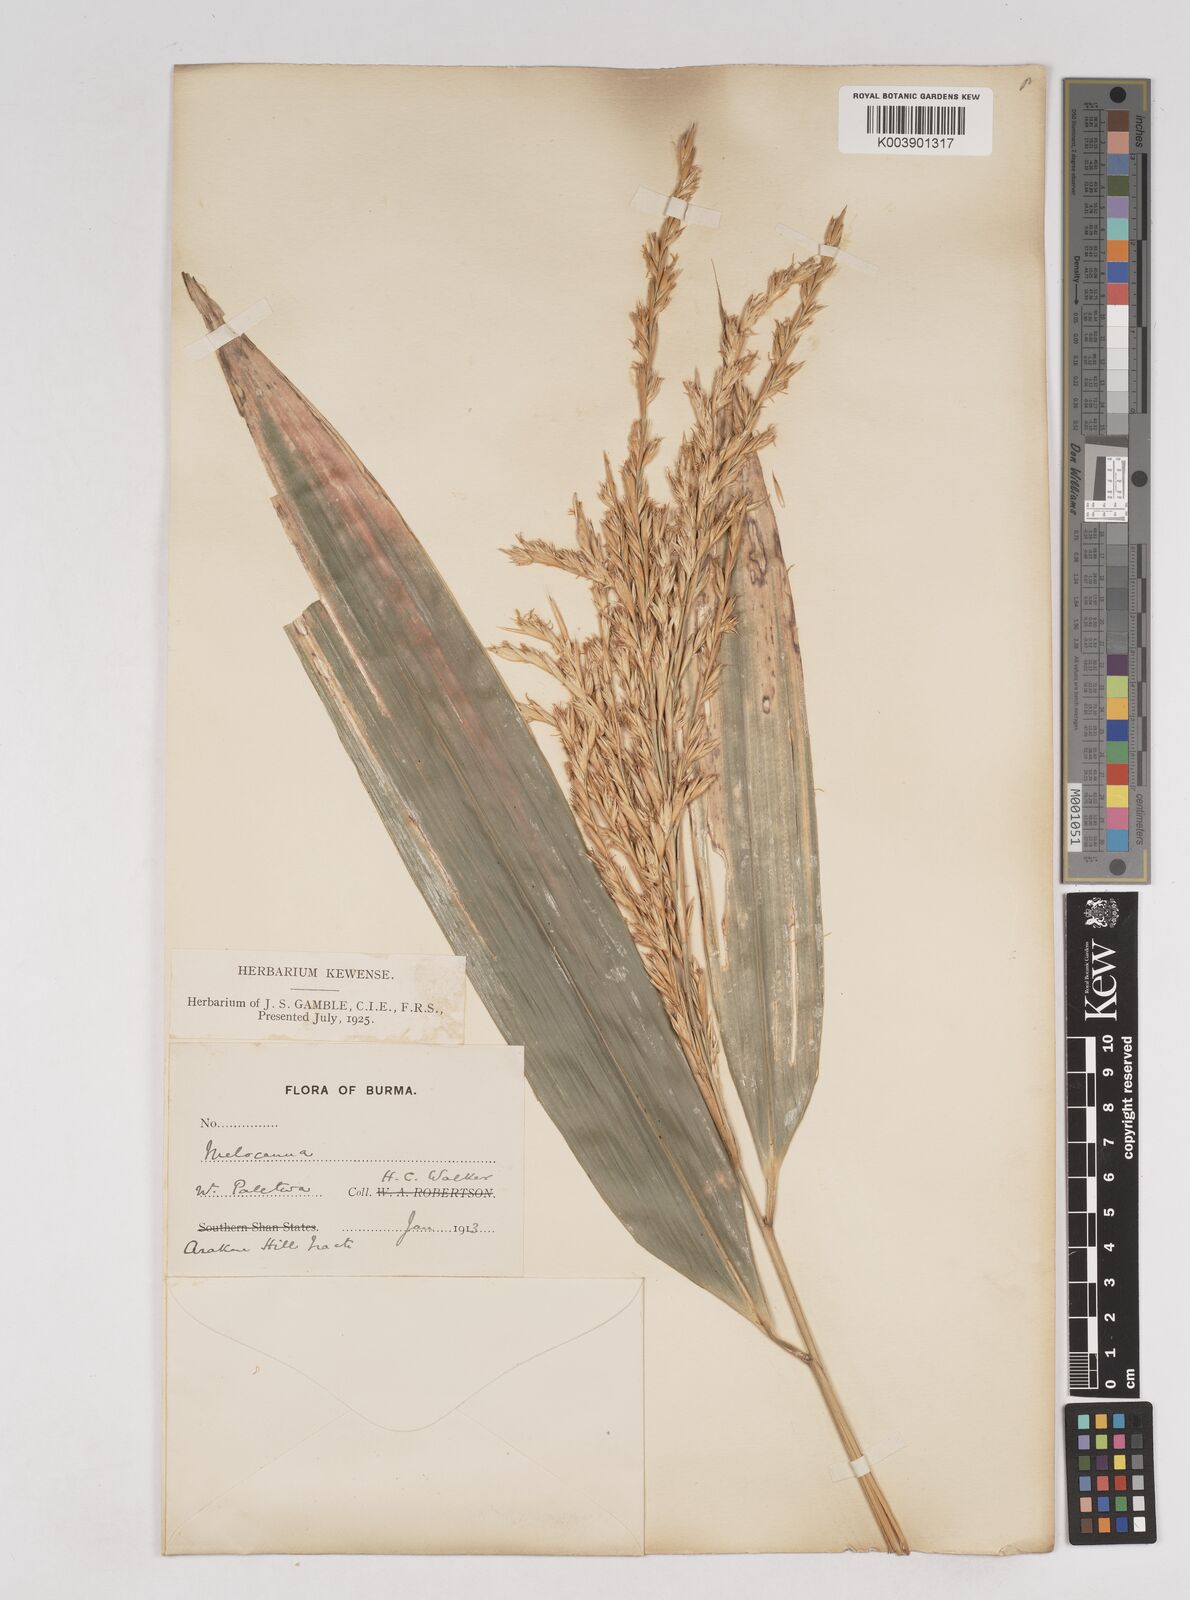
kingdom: Plantae
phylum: Tracheophyta
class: Liliopsida
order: Poales
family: Poaceae
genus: Melocanna
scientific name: Melocanna
